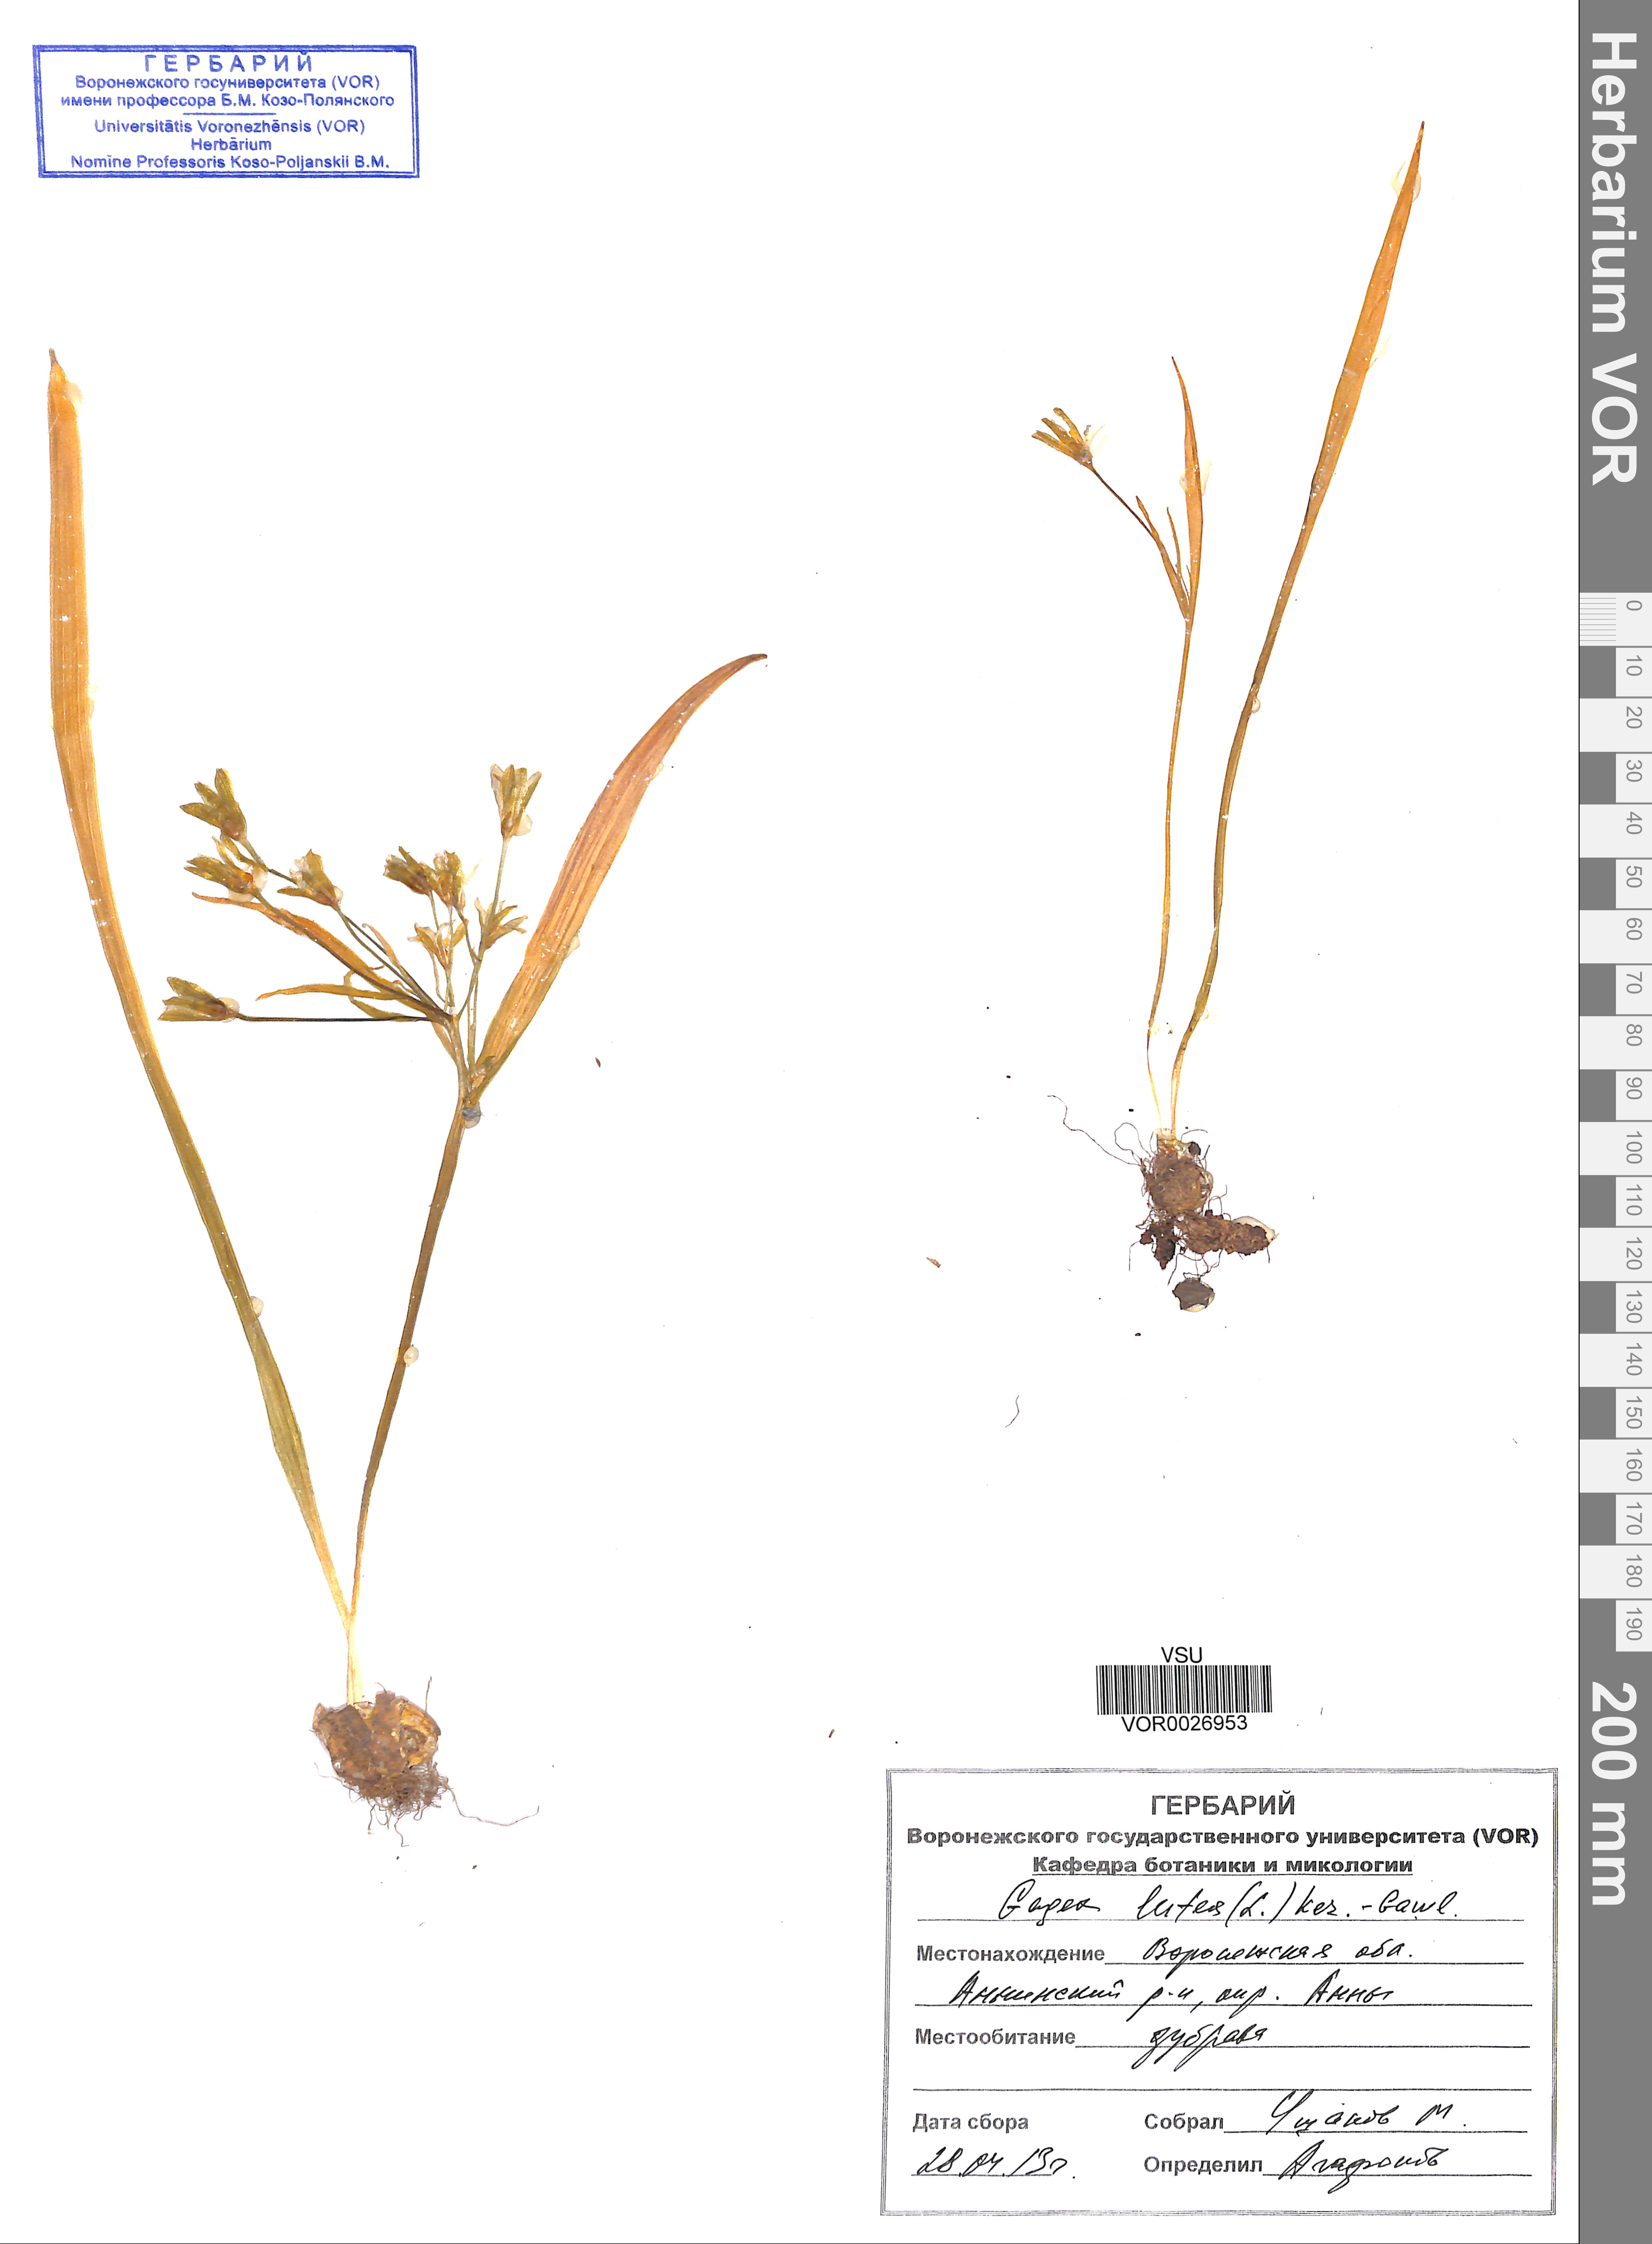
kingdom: Plantae
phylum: Tracheophyta
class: Liliopsida
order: Liliales
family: Liliaceae
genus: Gagea
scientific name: Gagea lutea
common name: Yellow star-of-bethlehem
